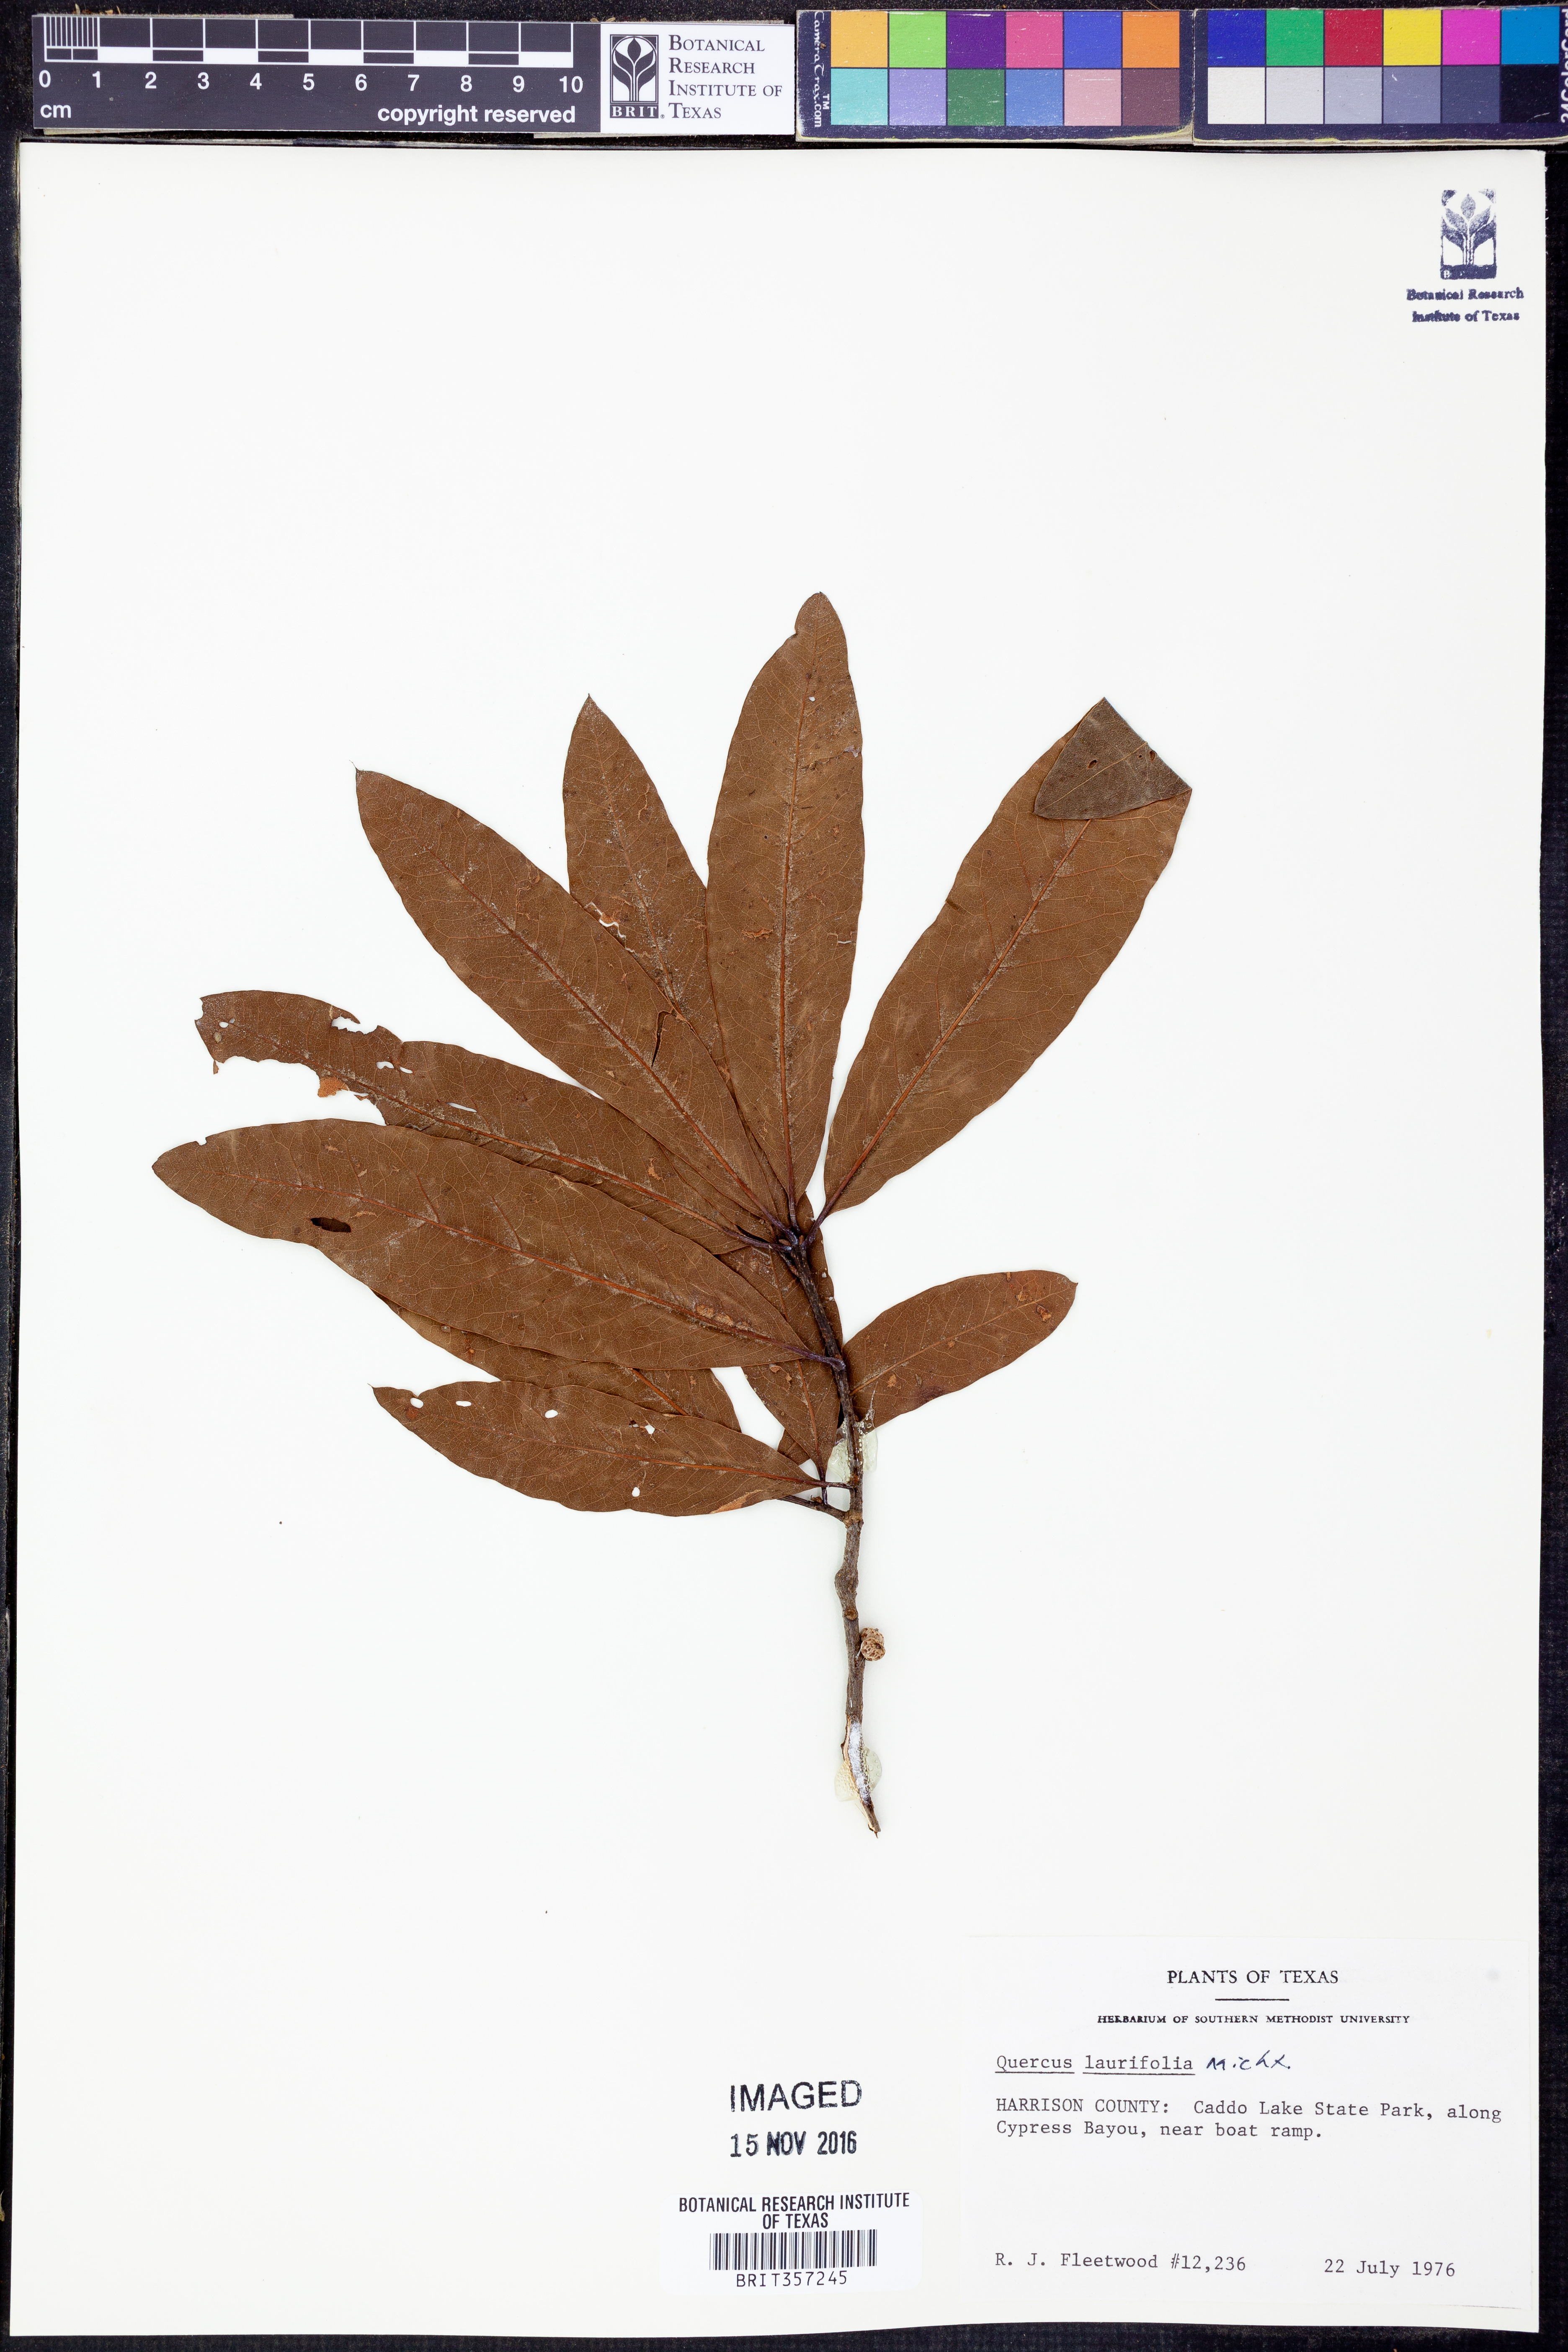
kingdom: Plantae
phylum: Tracheophyta
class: Magnoliopsida
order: Fagales
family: Fagaceae
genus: Quercus
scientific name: Quercus laurifolia
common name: Swamp laurel oak
